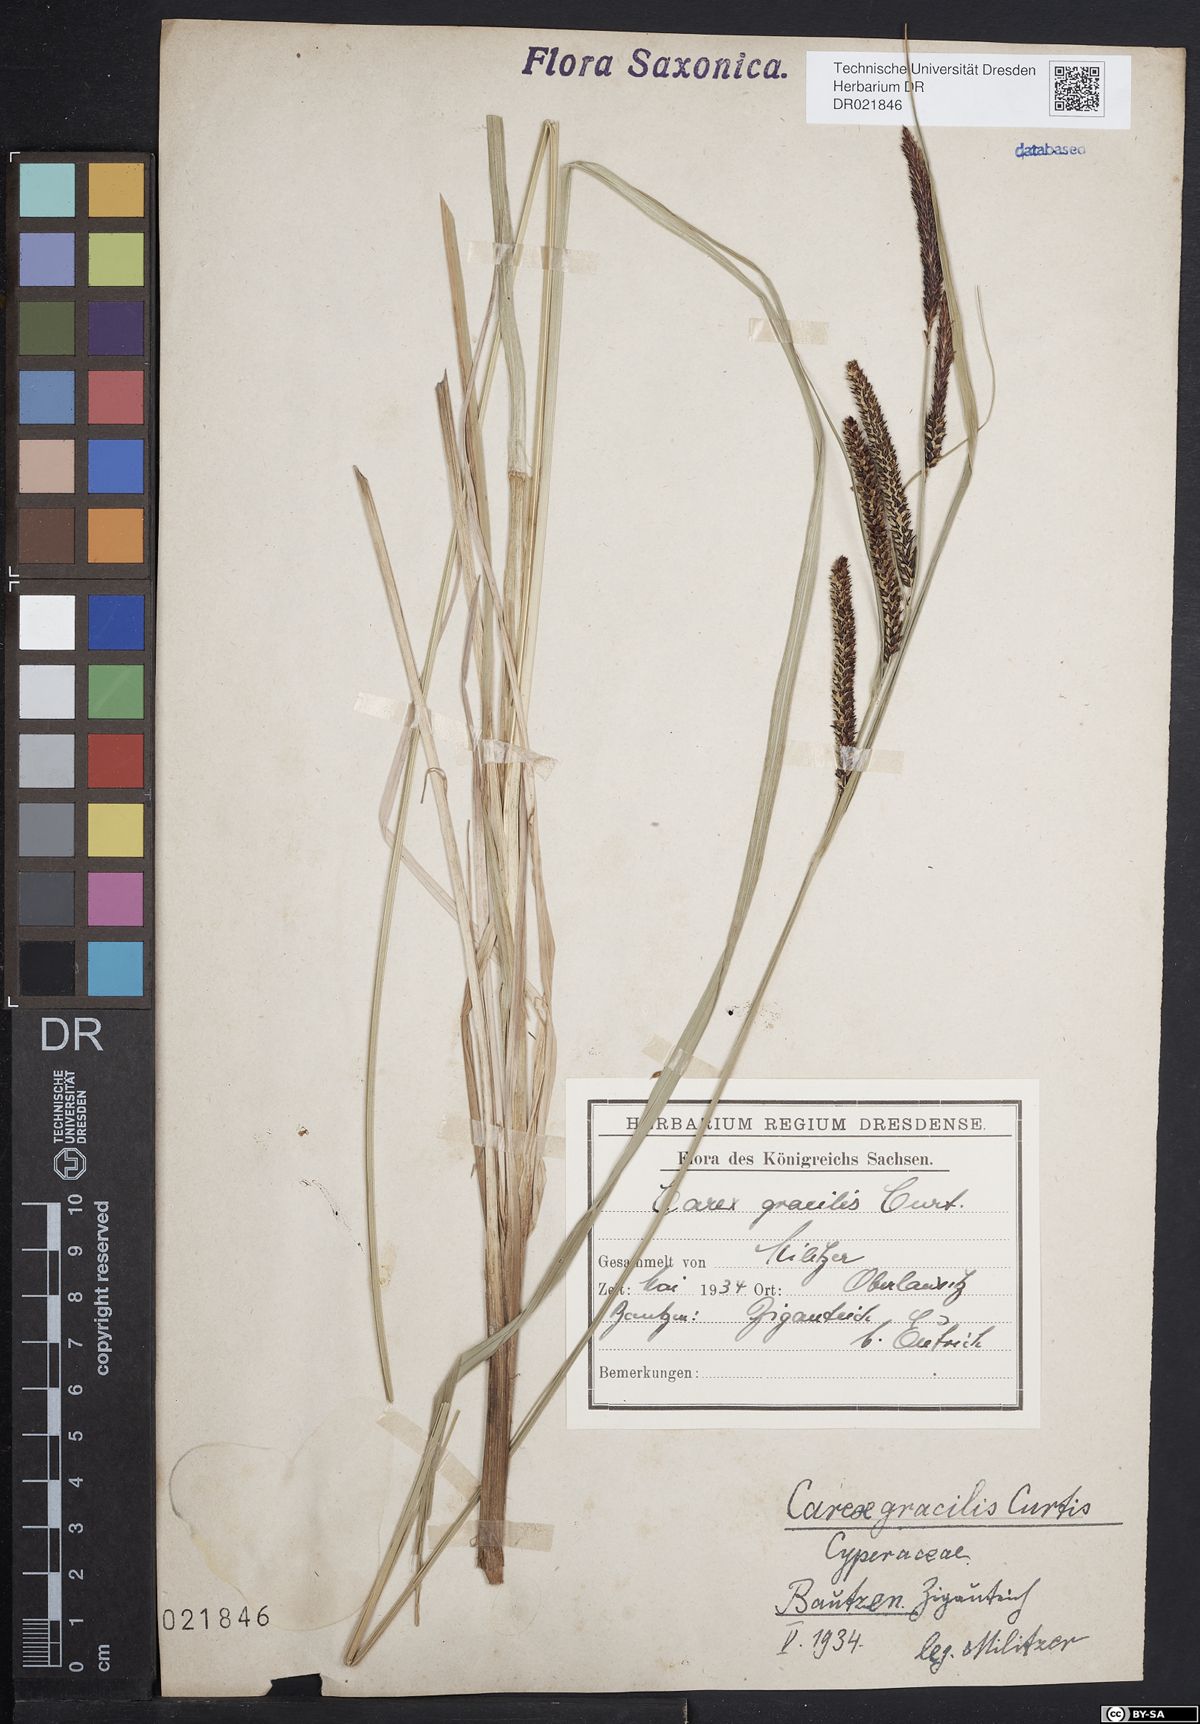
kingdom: Plantae
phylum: Tracheophyta
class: Liliopsida
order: Poales
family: Cyperaceae
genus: Carex
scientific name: Carex acuta
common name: Slender tufted-sedge
